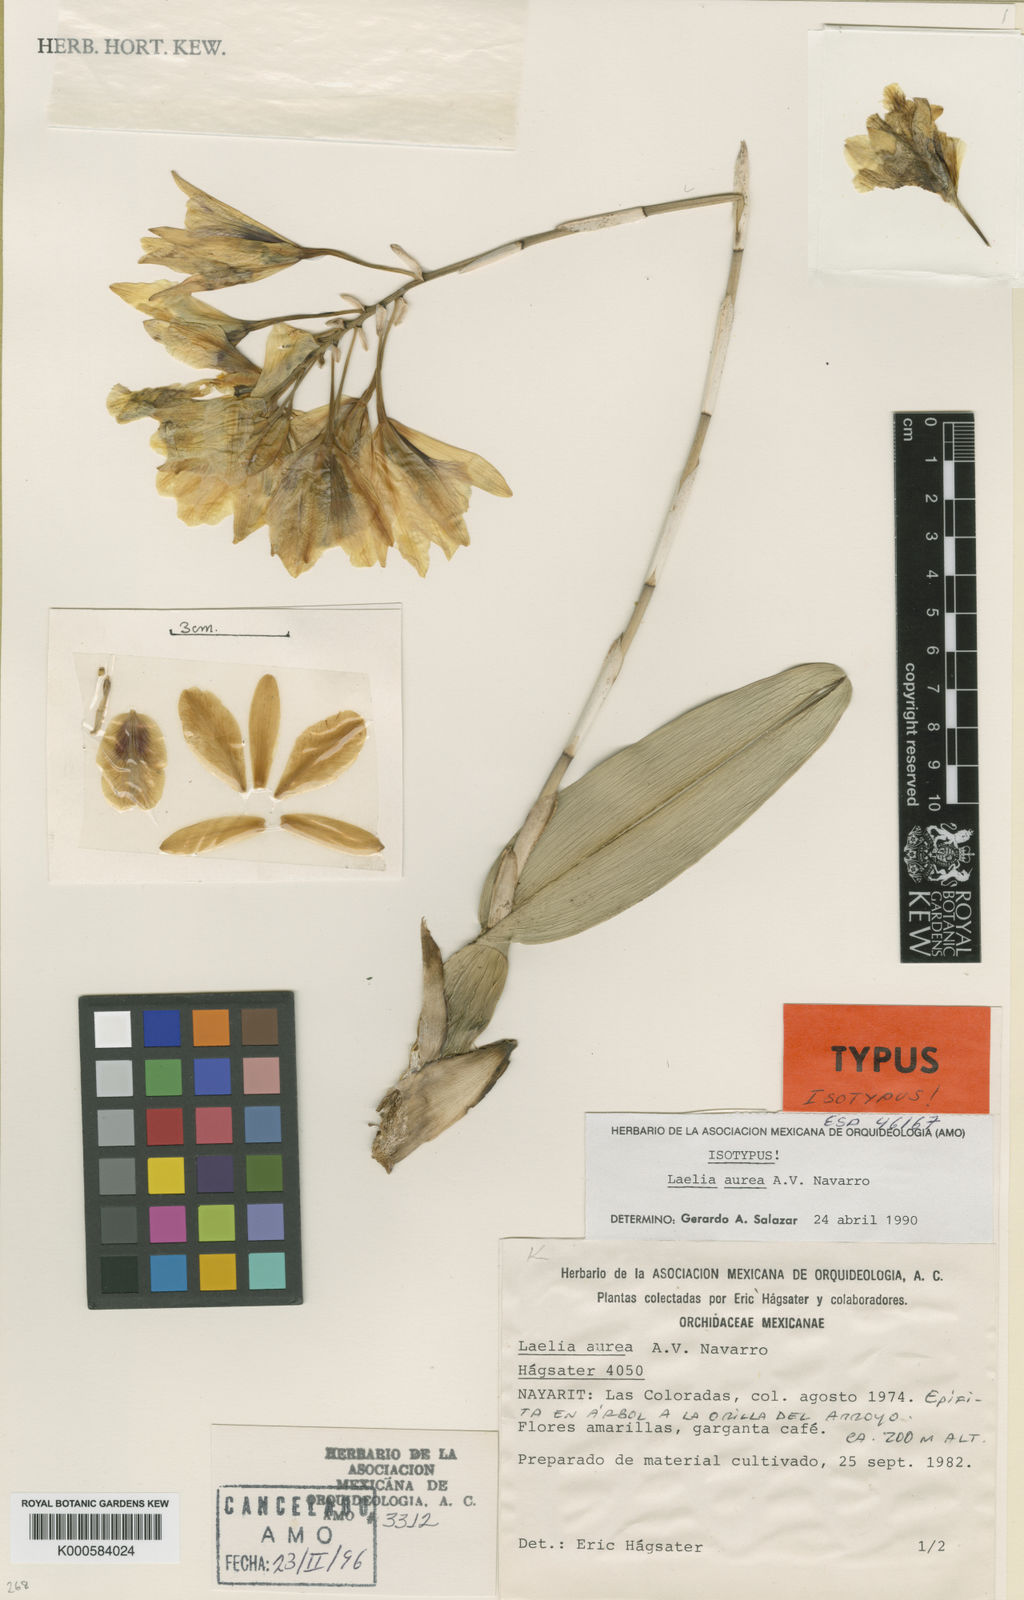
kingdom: Plantae
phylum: Tracheophyta
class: Liliopsida
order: Asparagales
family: Orchidaceae
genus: Laelia
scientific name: Laelia aurea
